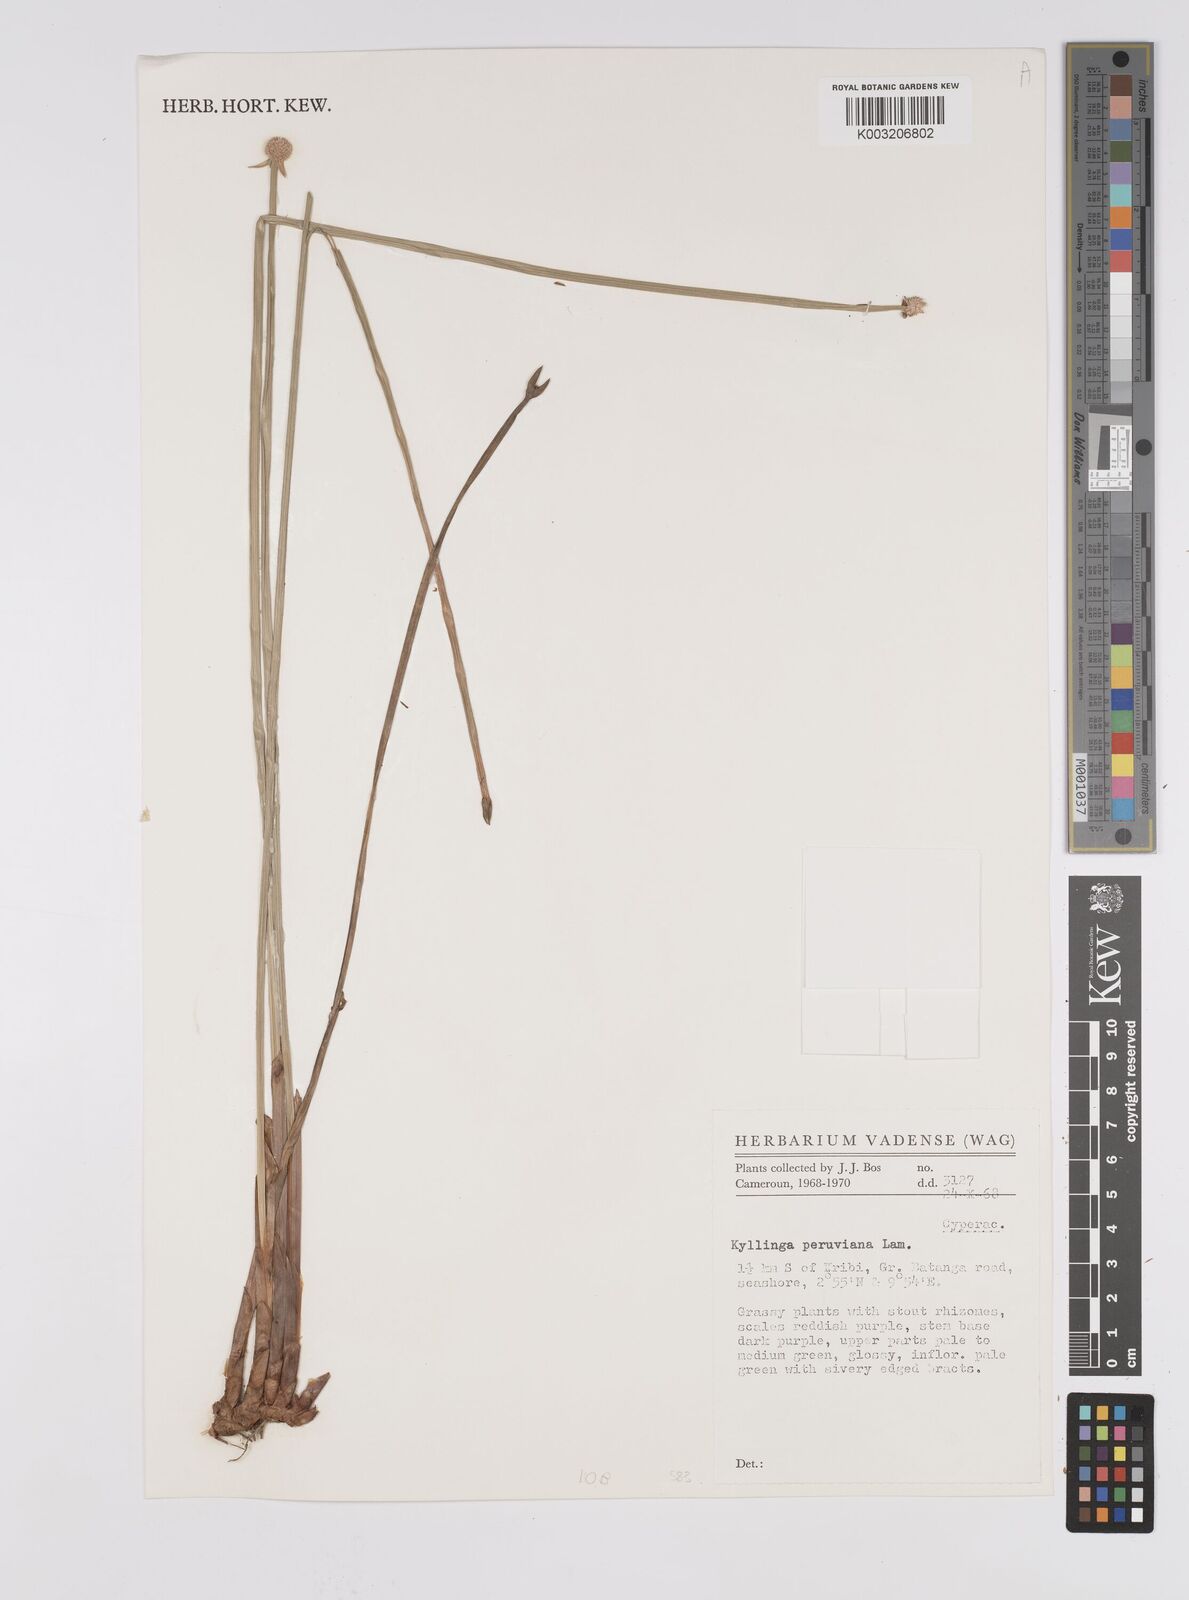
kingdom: Plantae
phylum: Tracheophyta
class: Liliopsida
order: Poales
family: Cyperaceae
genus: Cyperus
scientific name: Cyperus
